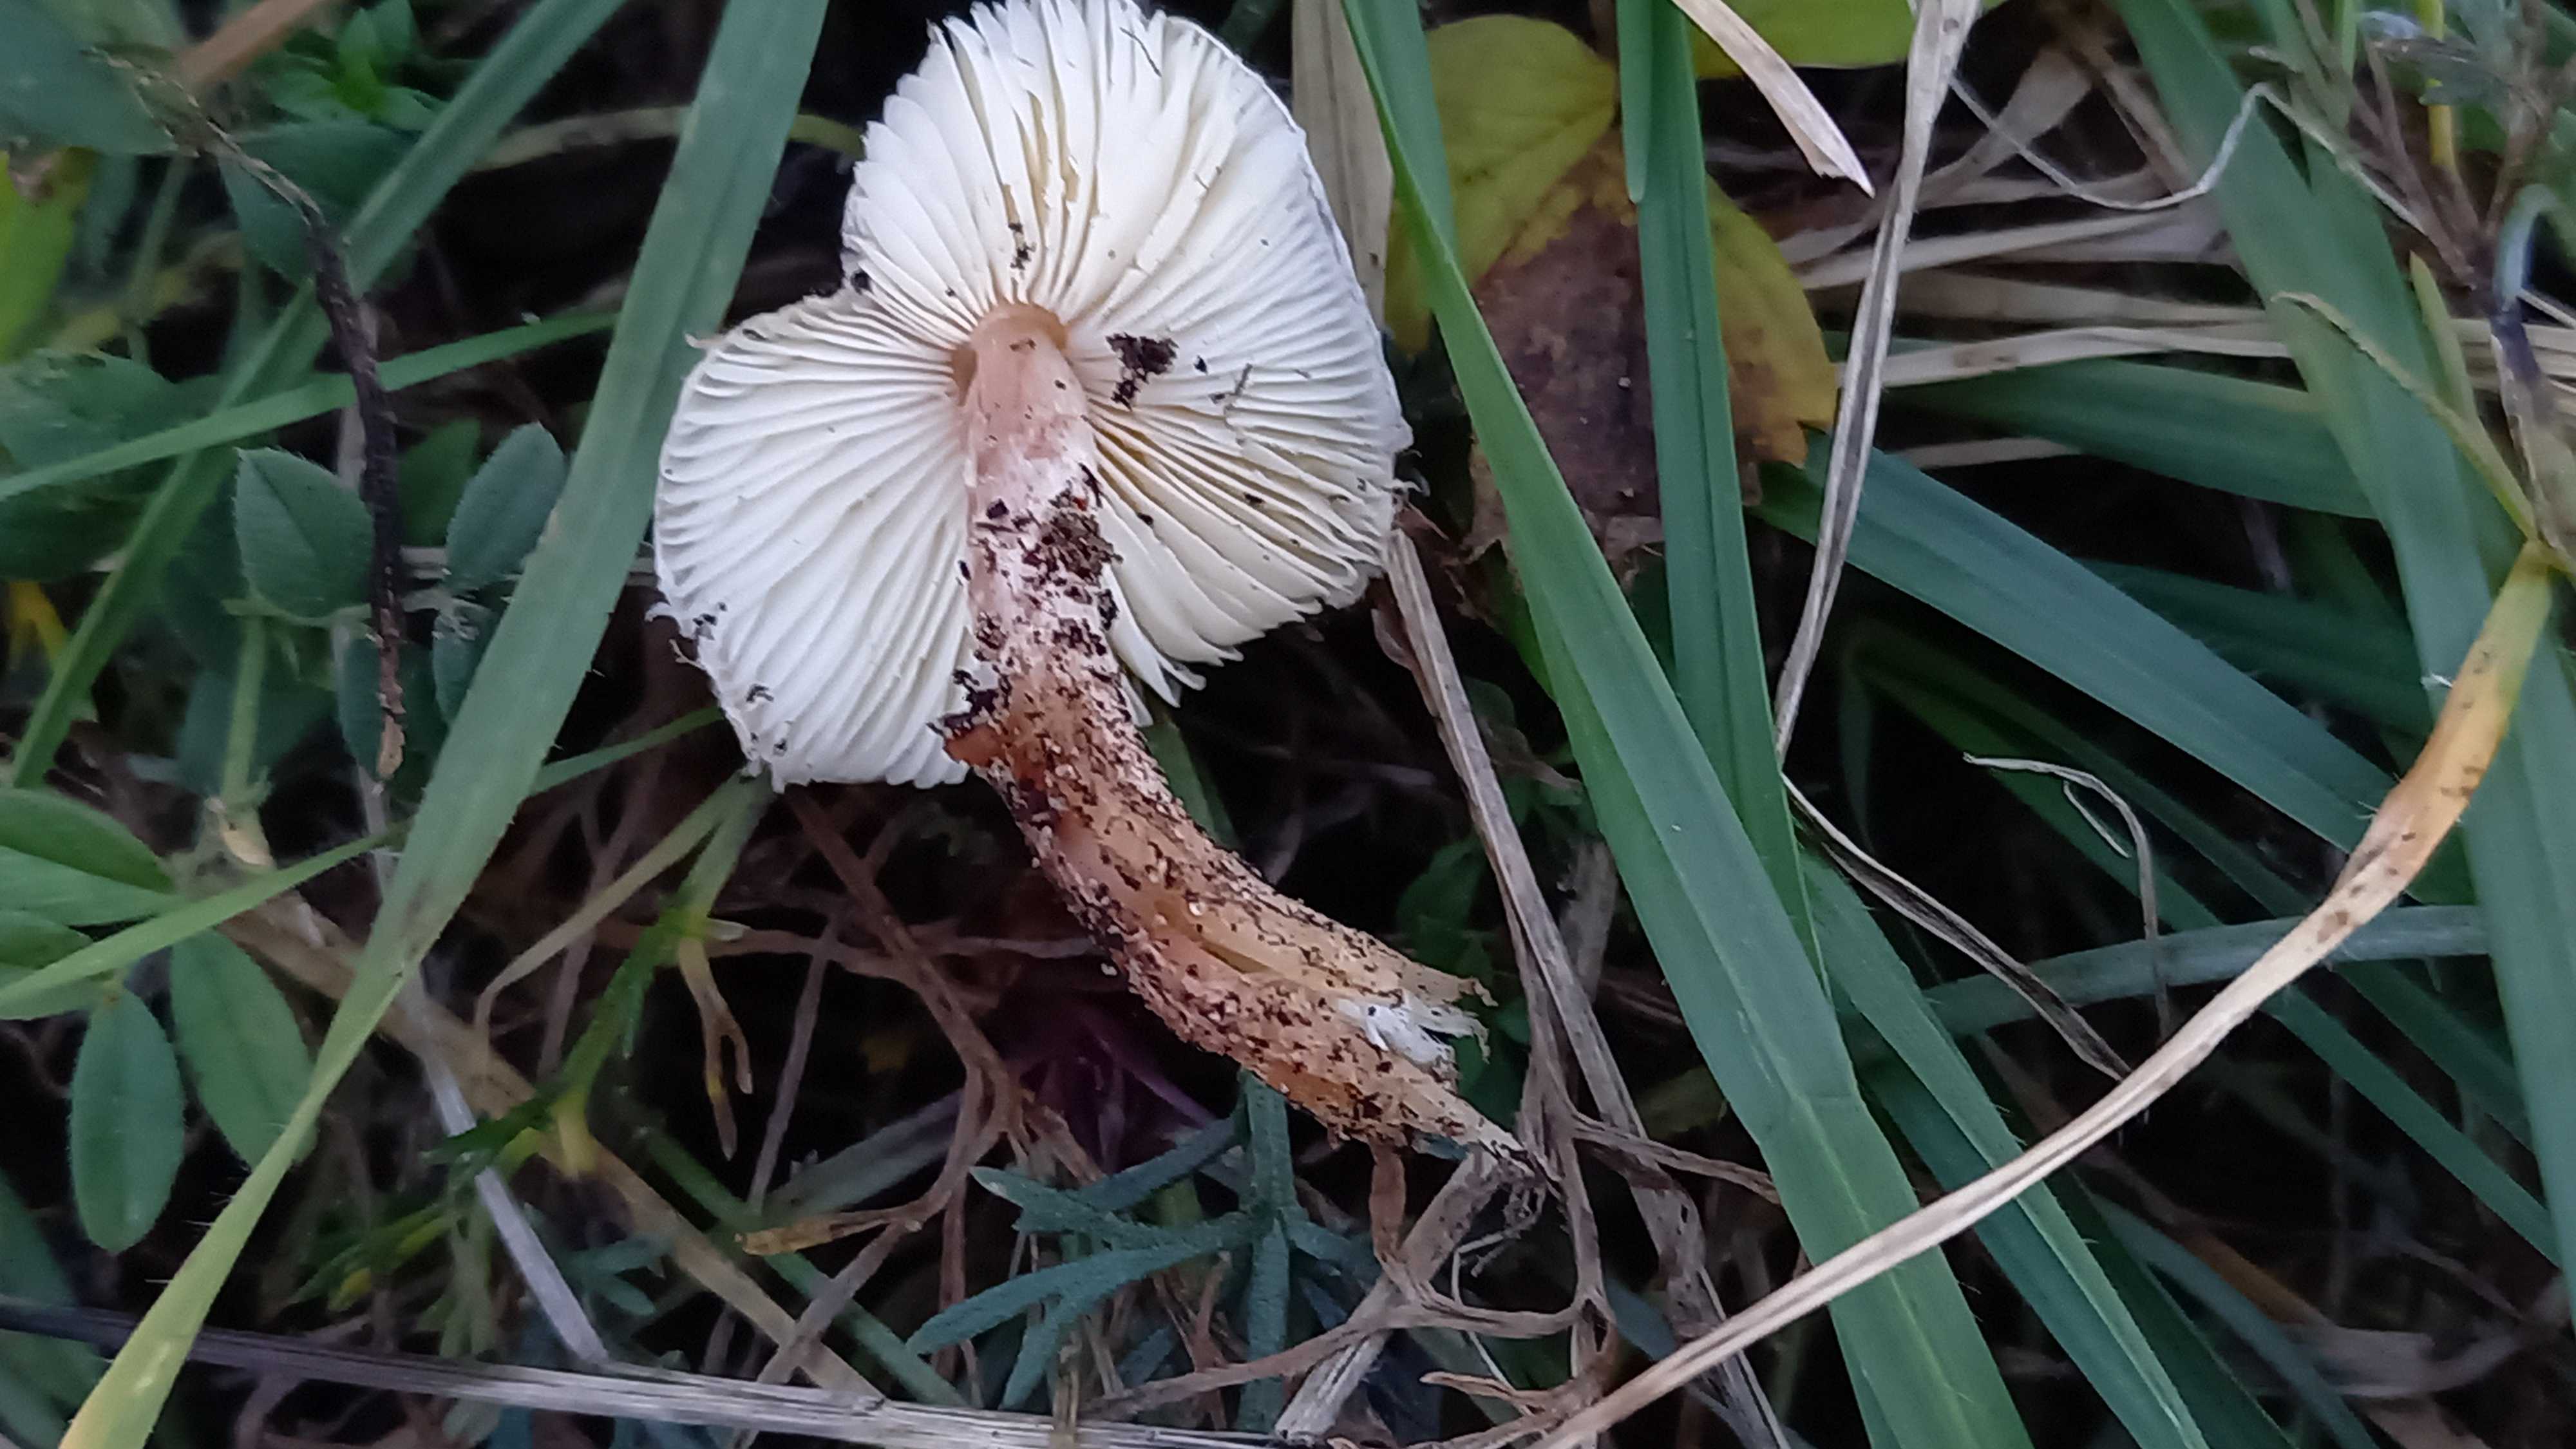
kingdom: Fungi
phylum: Basidiomycota
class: Agaricomycetes
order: Agaricales
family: Agaricaceae
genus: Lepiota
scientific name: Lepiota subincarnata
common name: kødfarvet parasolhat
